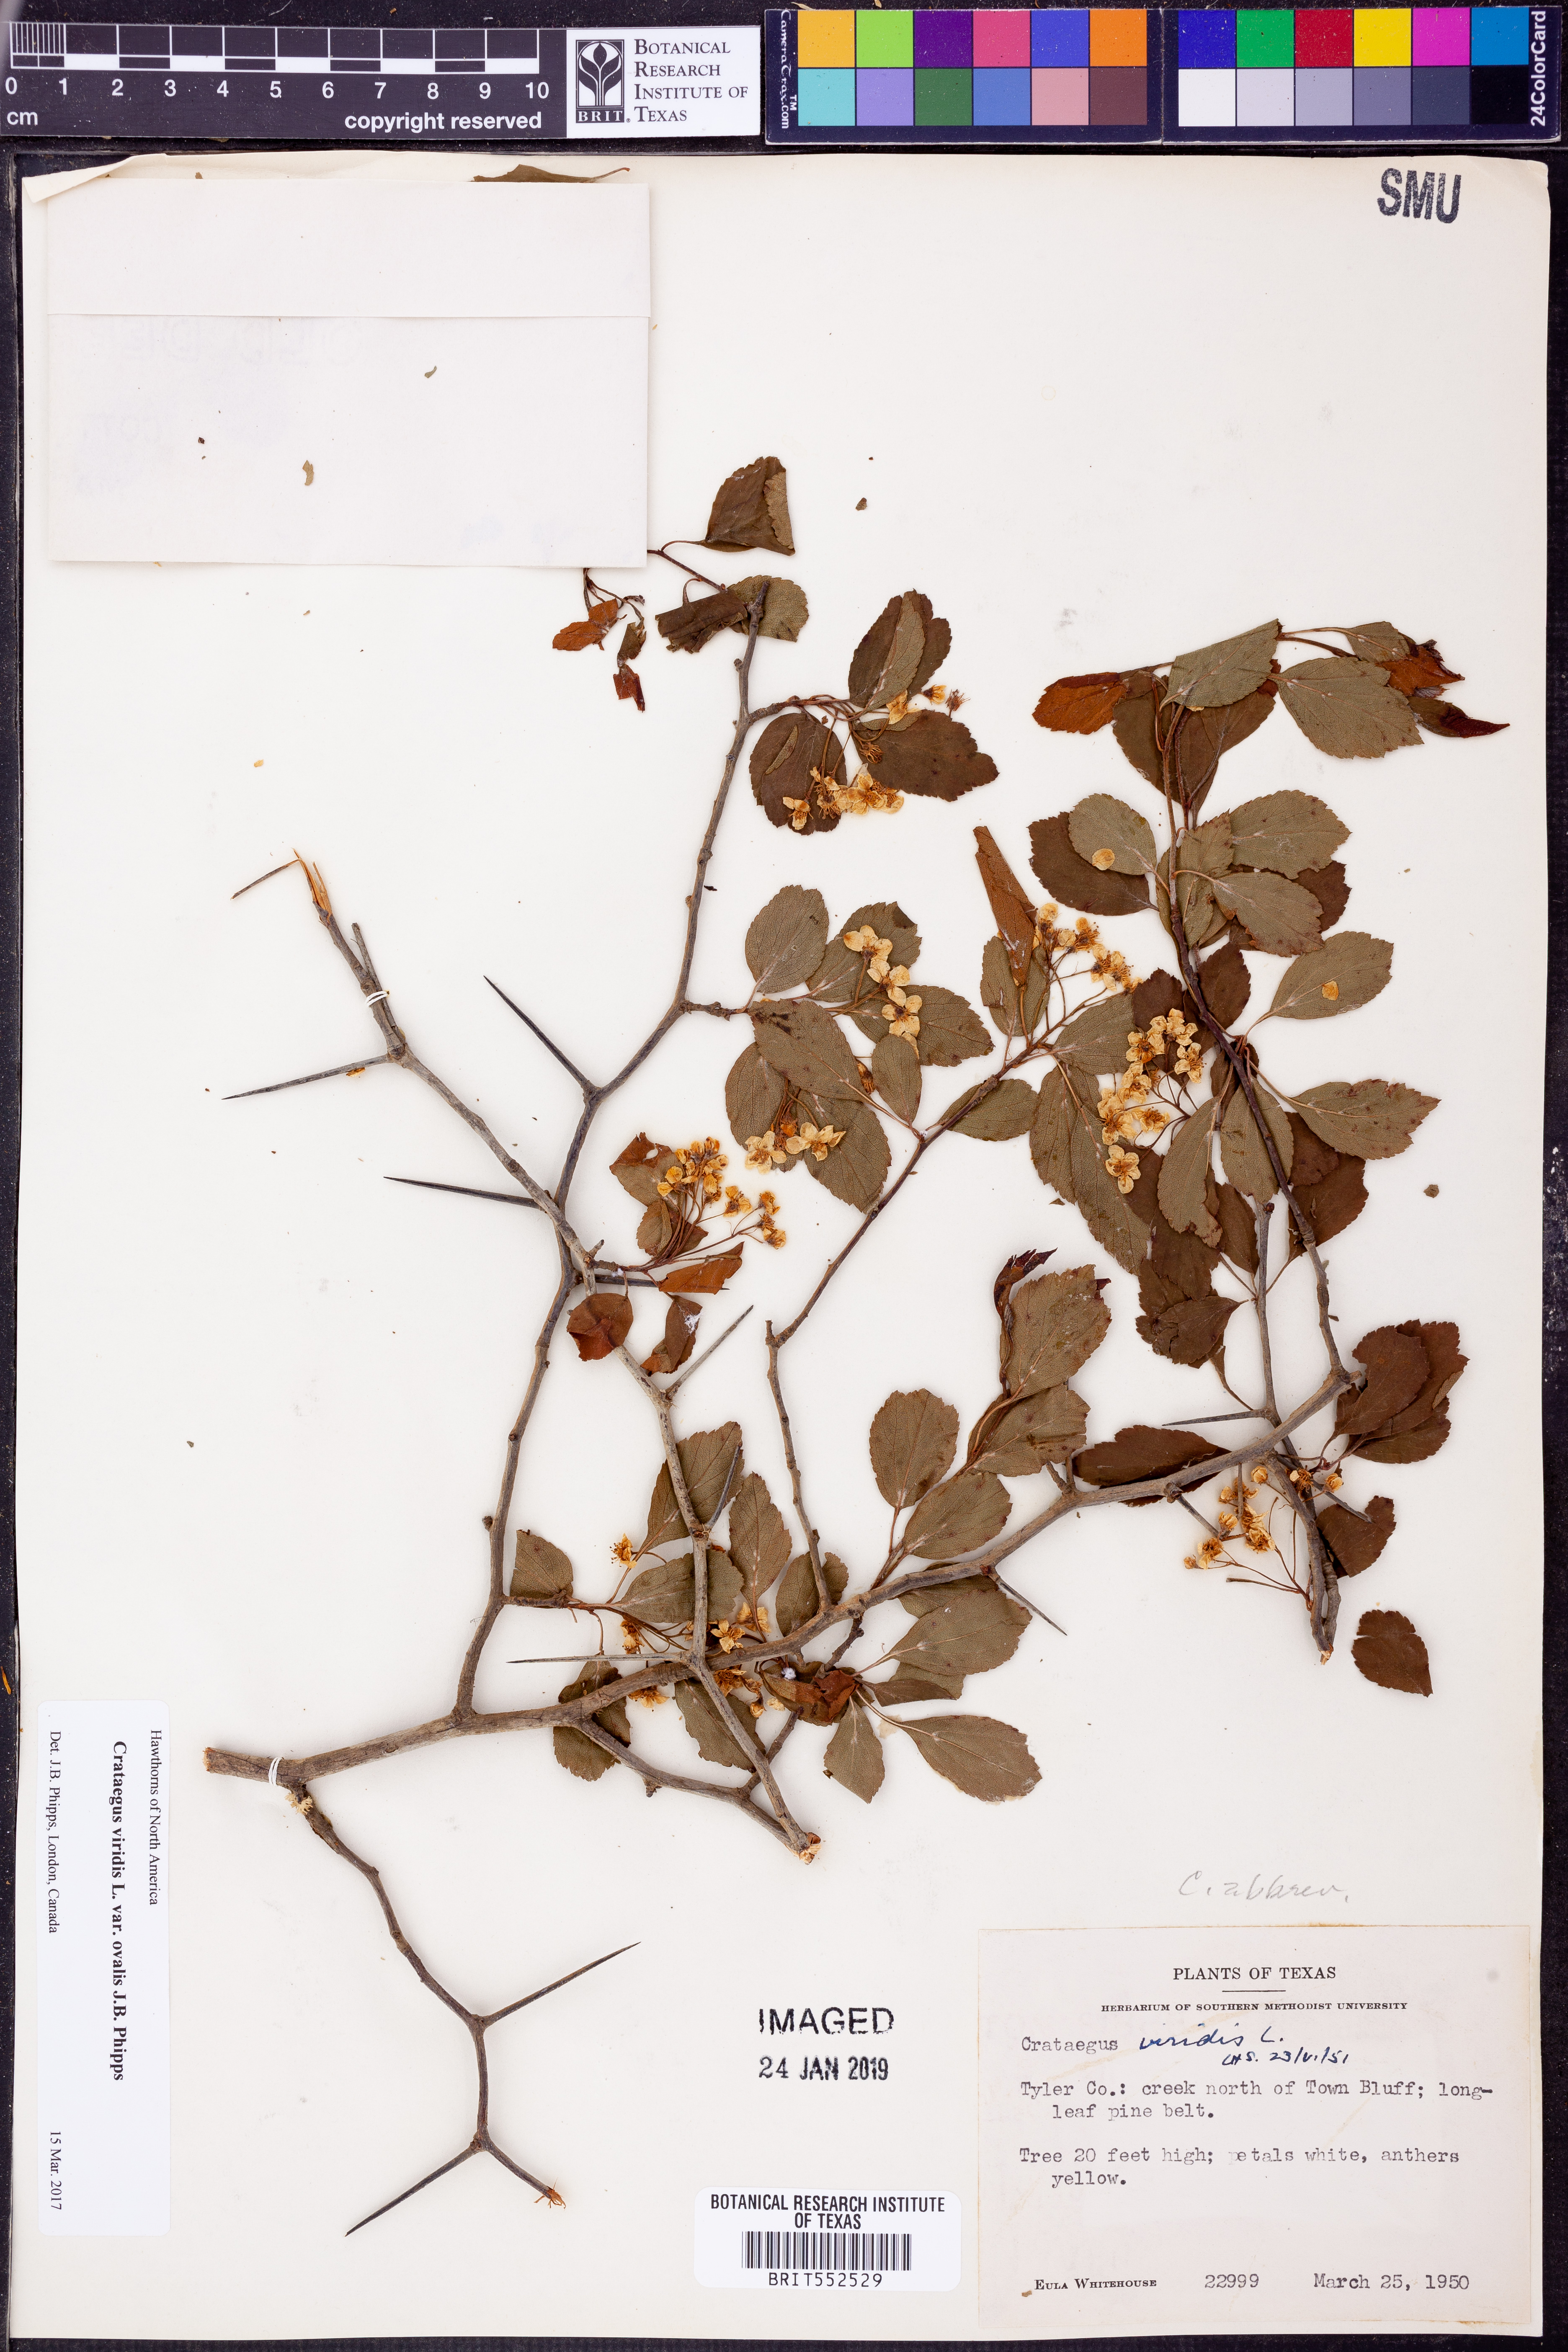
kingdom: Plantae
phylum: Tracheophyta
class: Magnoliopsida
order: Rosales
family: Rosaceae
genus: Crataegus
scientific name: Crataegus viridis
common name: Southernthorn
